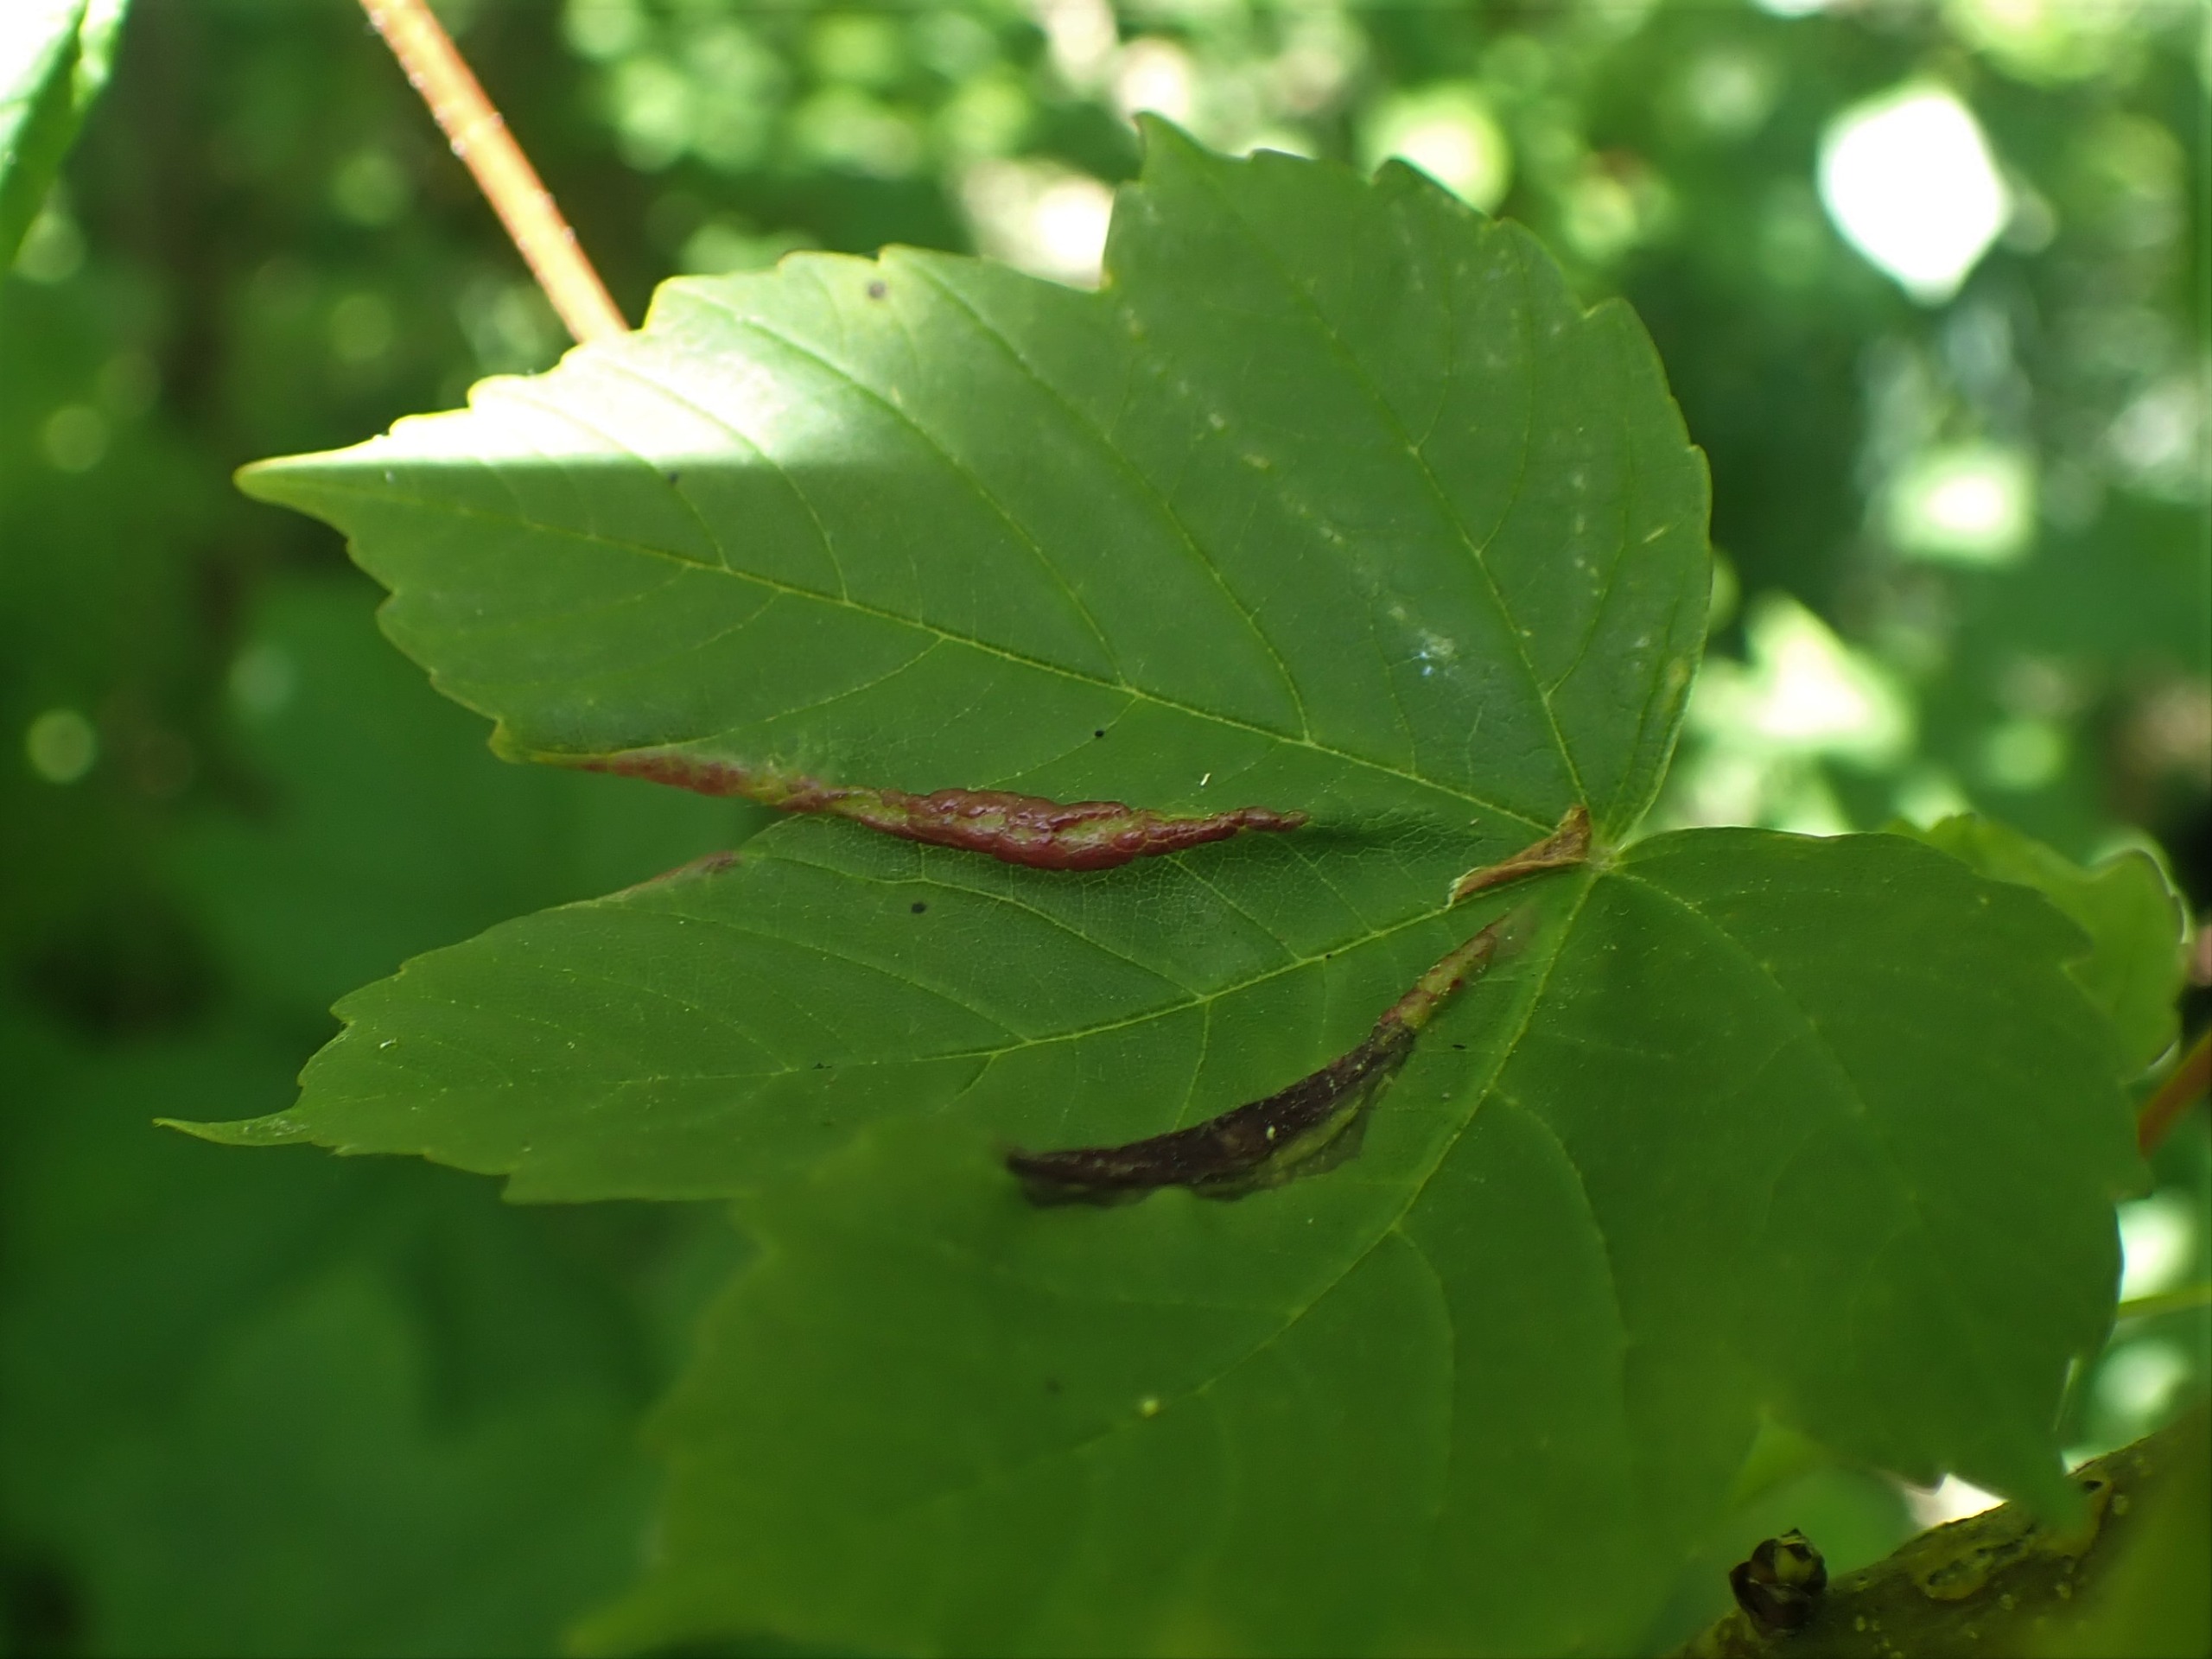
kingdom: Animalia
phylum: Arthropoda
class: Insecta
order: Diptera
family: Cecidomyiidae
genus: Contarinia
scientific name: Contarinia acerplicans
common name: Ahornvulstgalmyg
